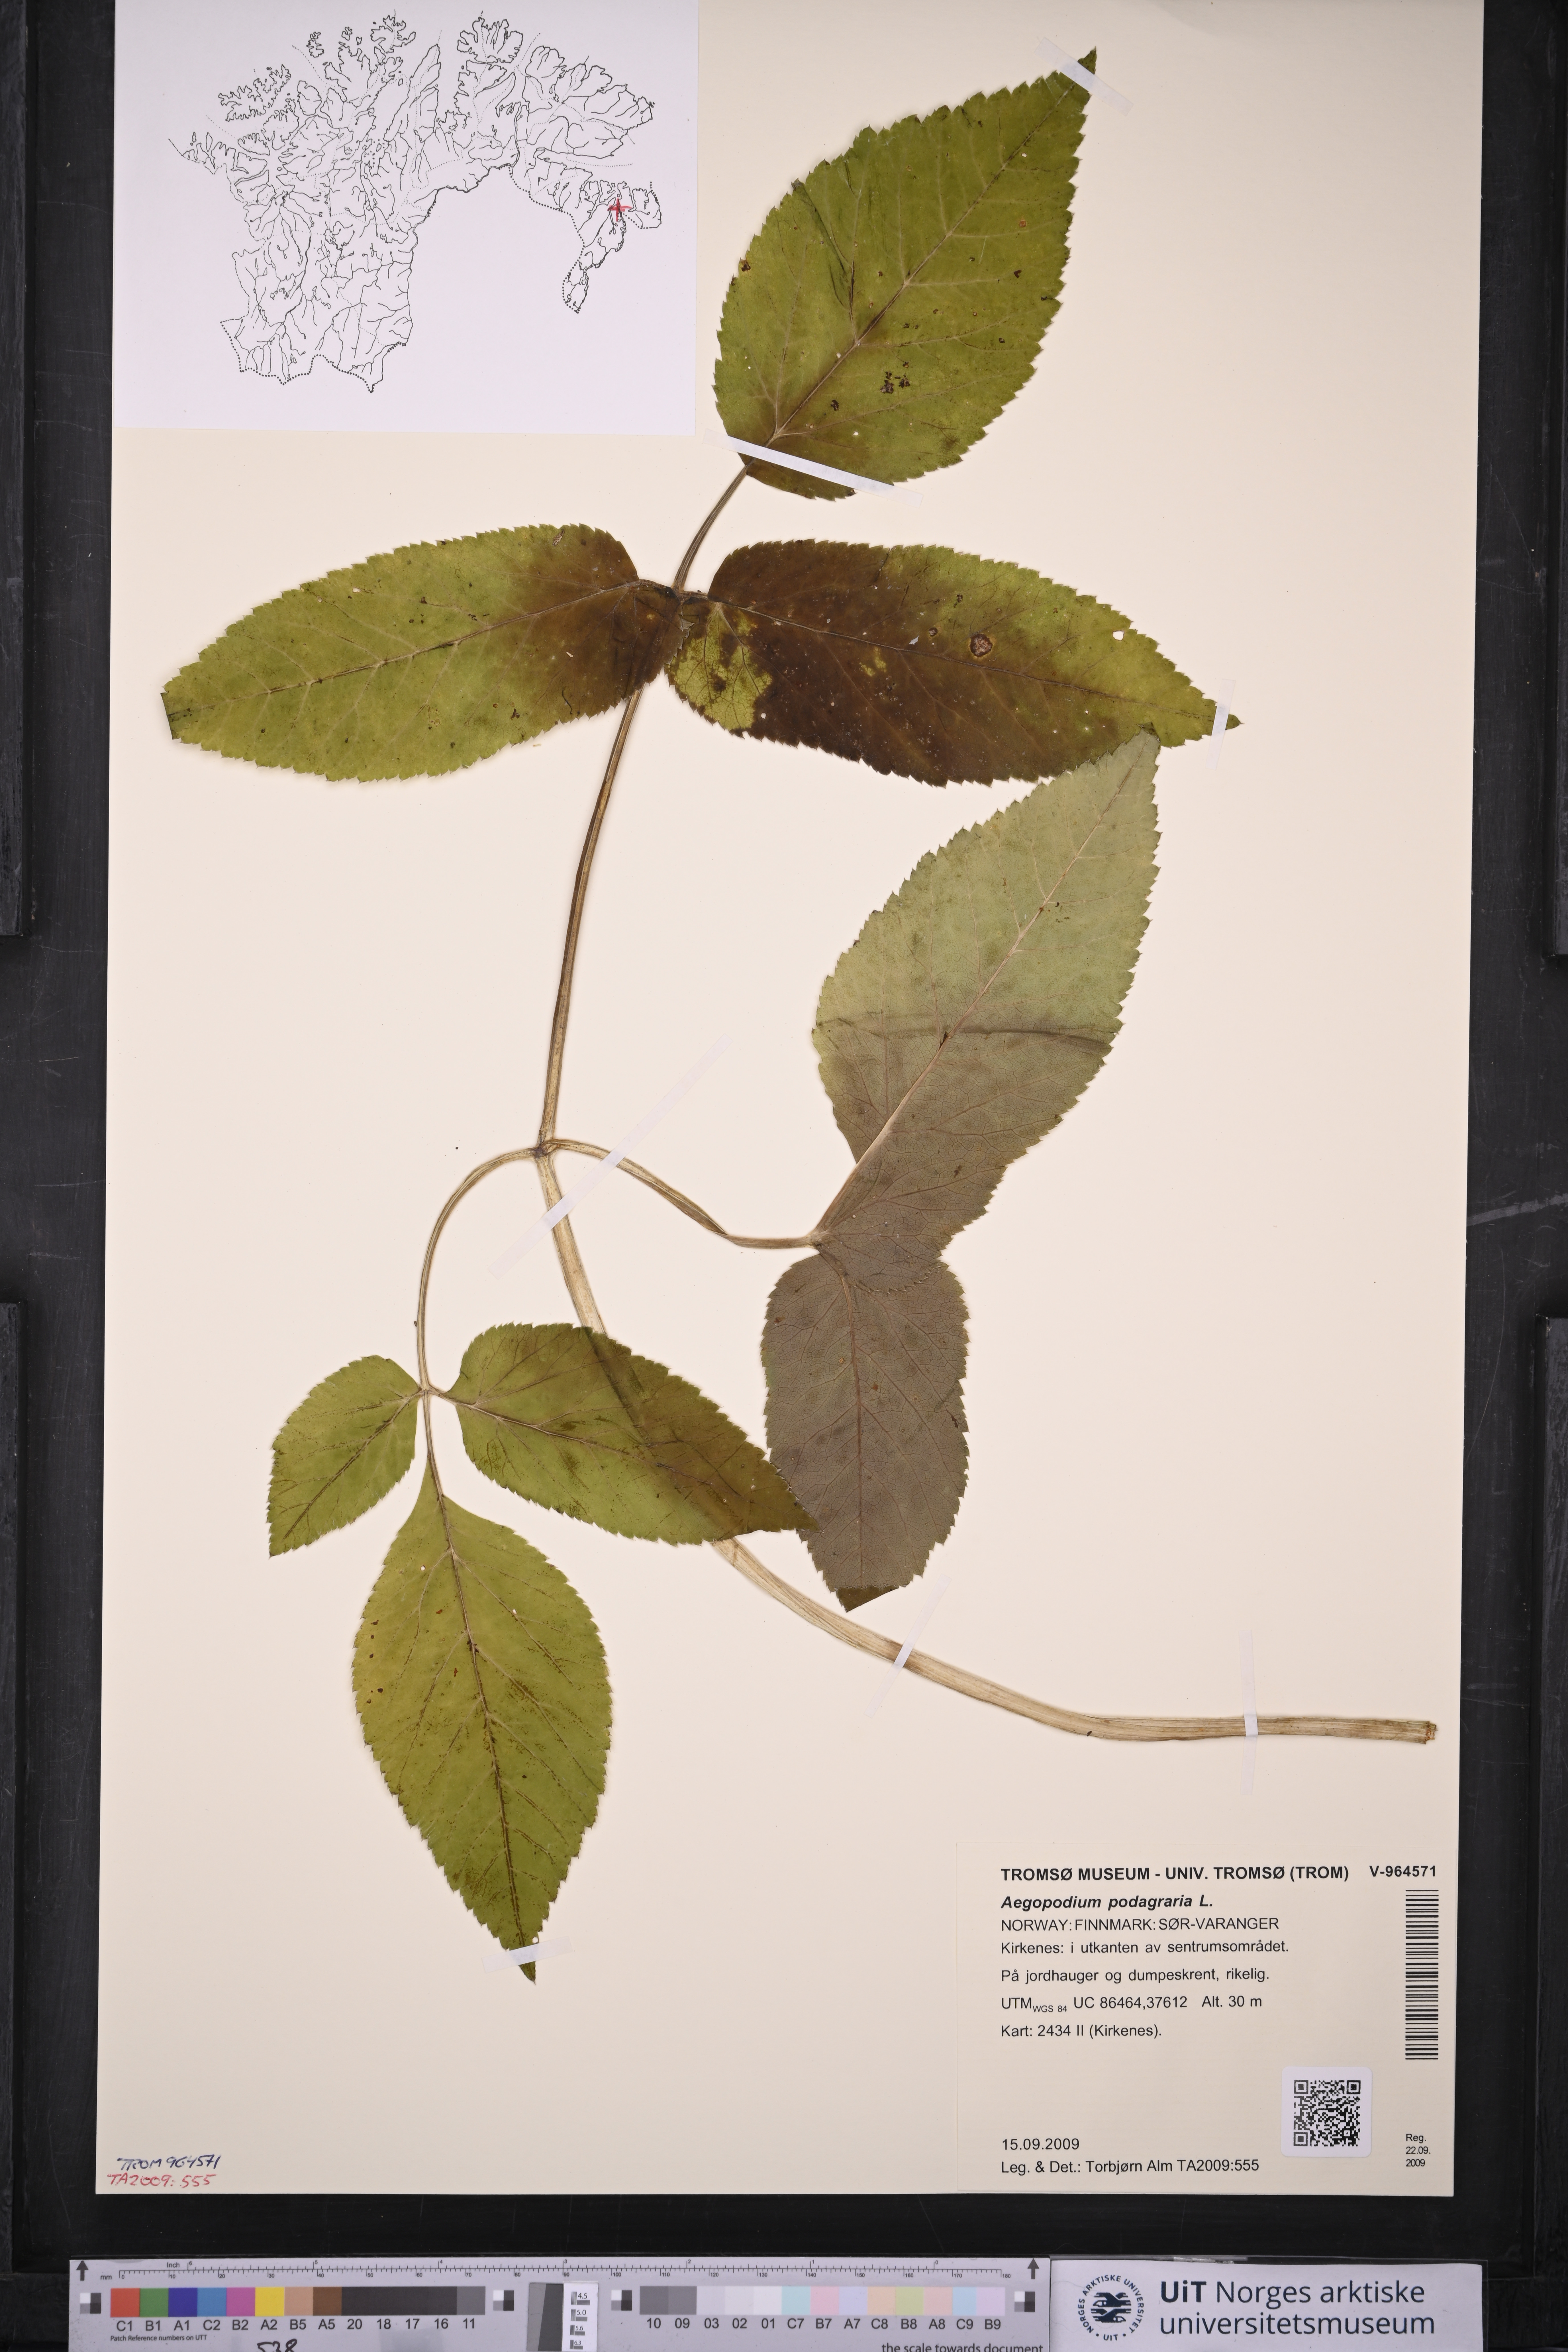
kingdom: Plantae
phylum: Tracheophyta
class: Magnoliopsida
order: Apiales
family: Apiaceae
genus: Aegopodium
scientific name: Aegopodium podagraria
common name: Ground-elder
